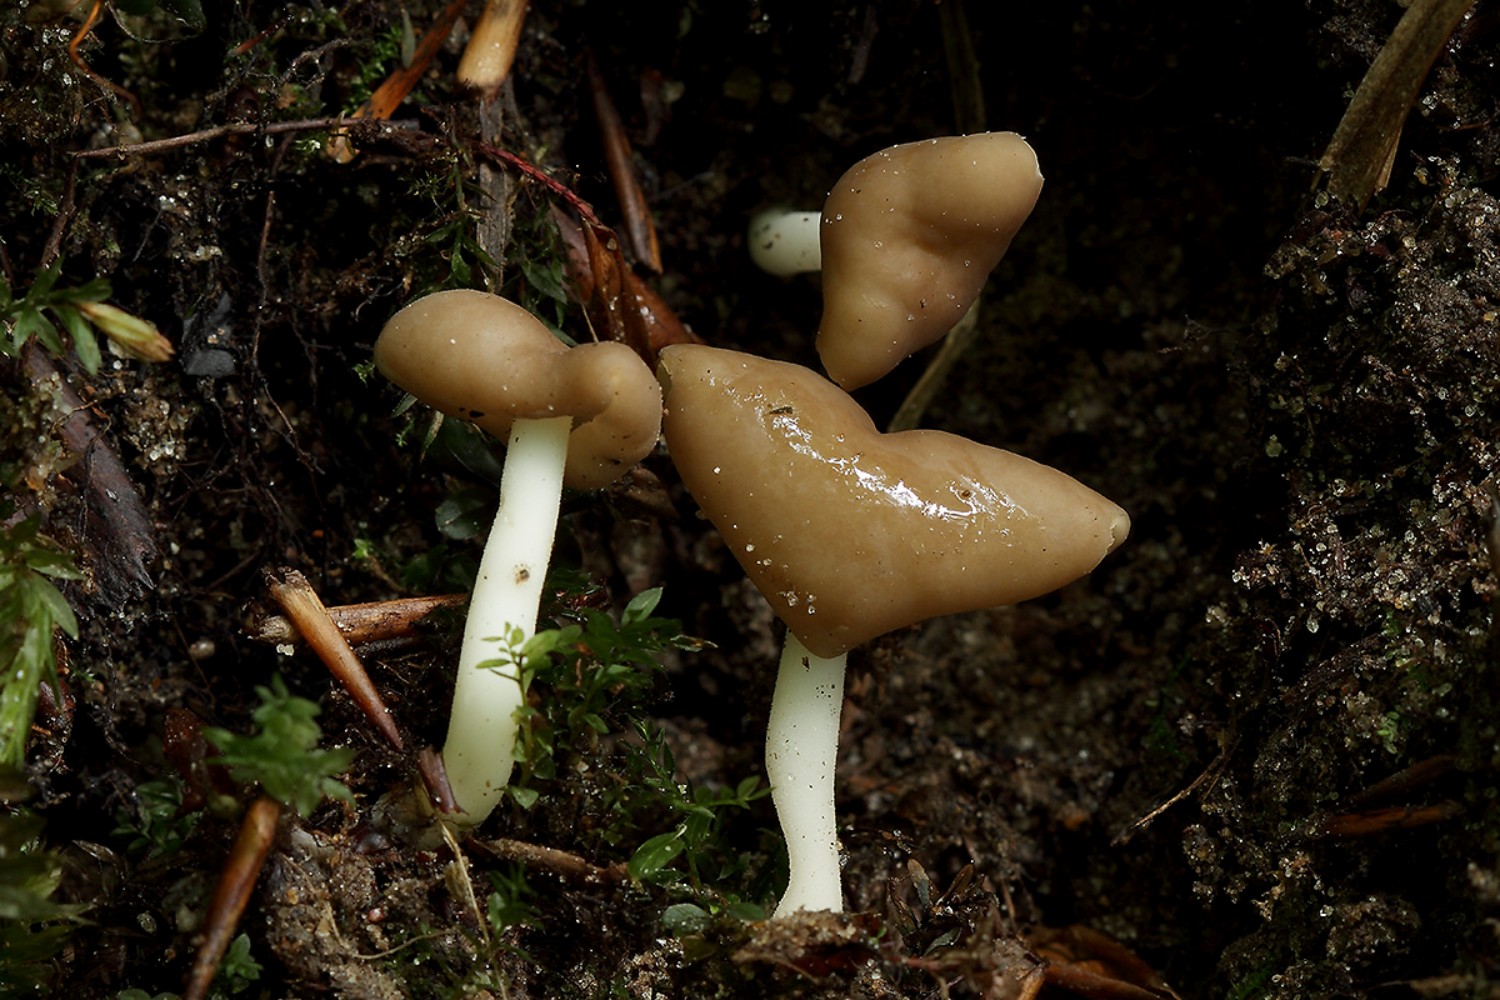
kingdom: Fungi
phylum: Ascomycota
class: Pezizomycetes
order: Pezizales
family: Helvellaceae
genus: Helvella
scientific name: Helvella elastica
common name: elastik-foldhat
